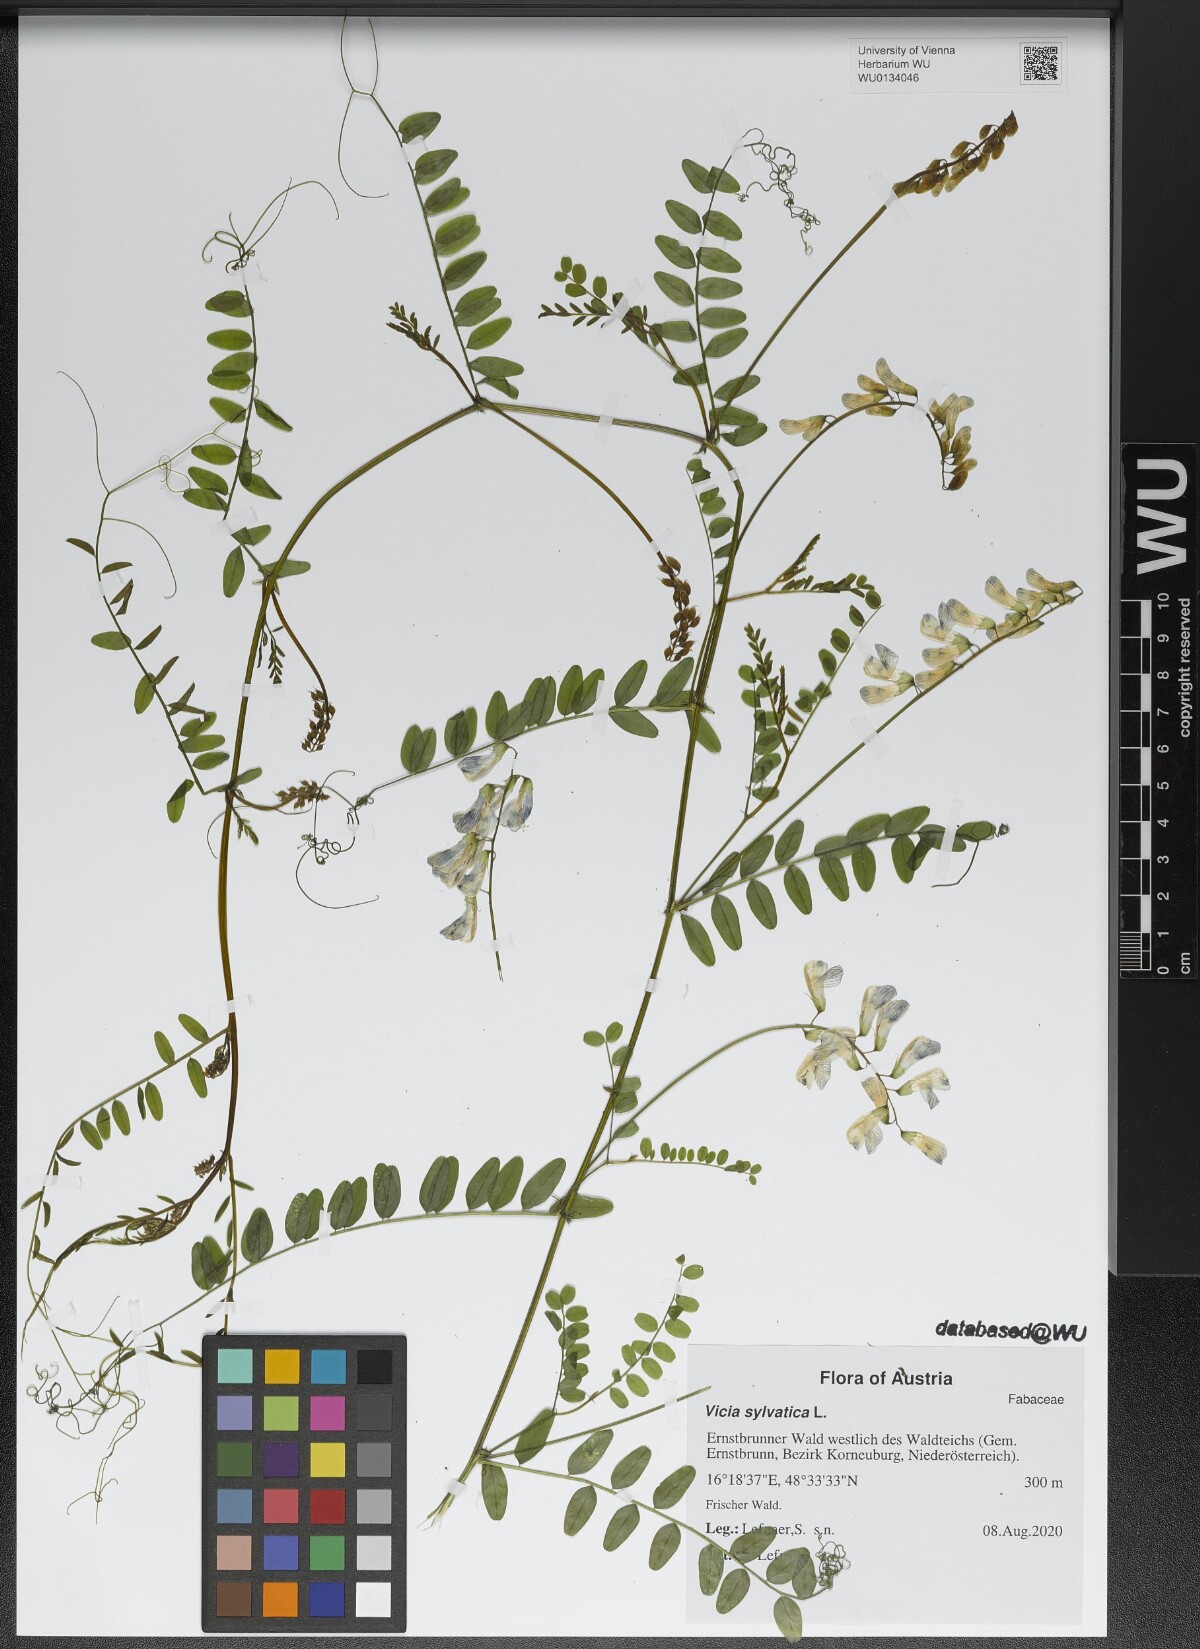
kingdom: Plantae
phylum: Tracheophyta
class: Magnoliopsida
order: Fabales
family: Fabaceae
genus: Vicia
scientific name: Vicia sylvatica
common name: Wood vetch
